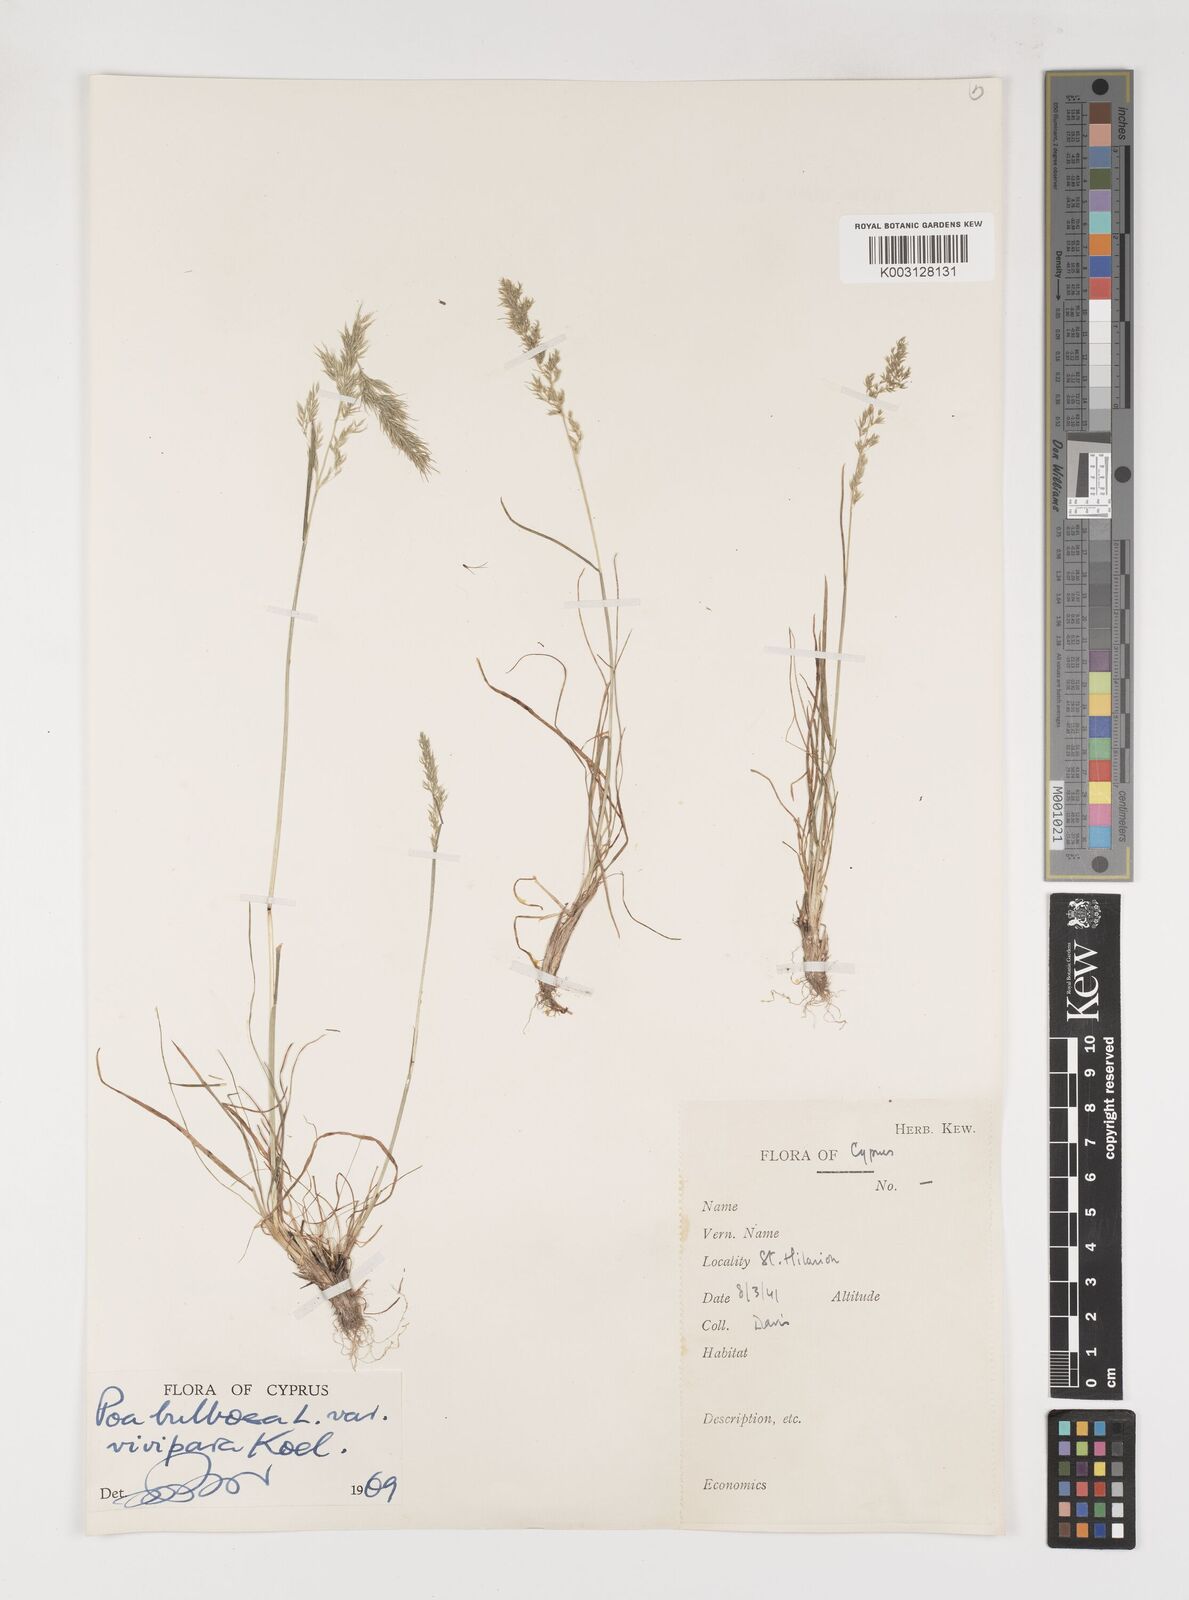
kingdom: Plantae
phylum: Tracheophyta
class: Liliopsida
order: Poales
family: Poaceae
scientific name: Poaceae
